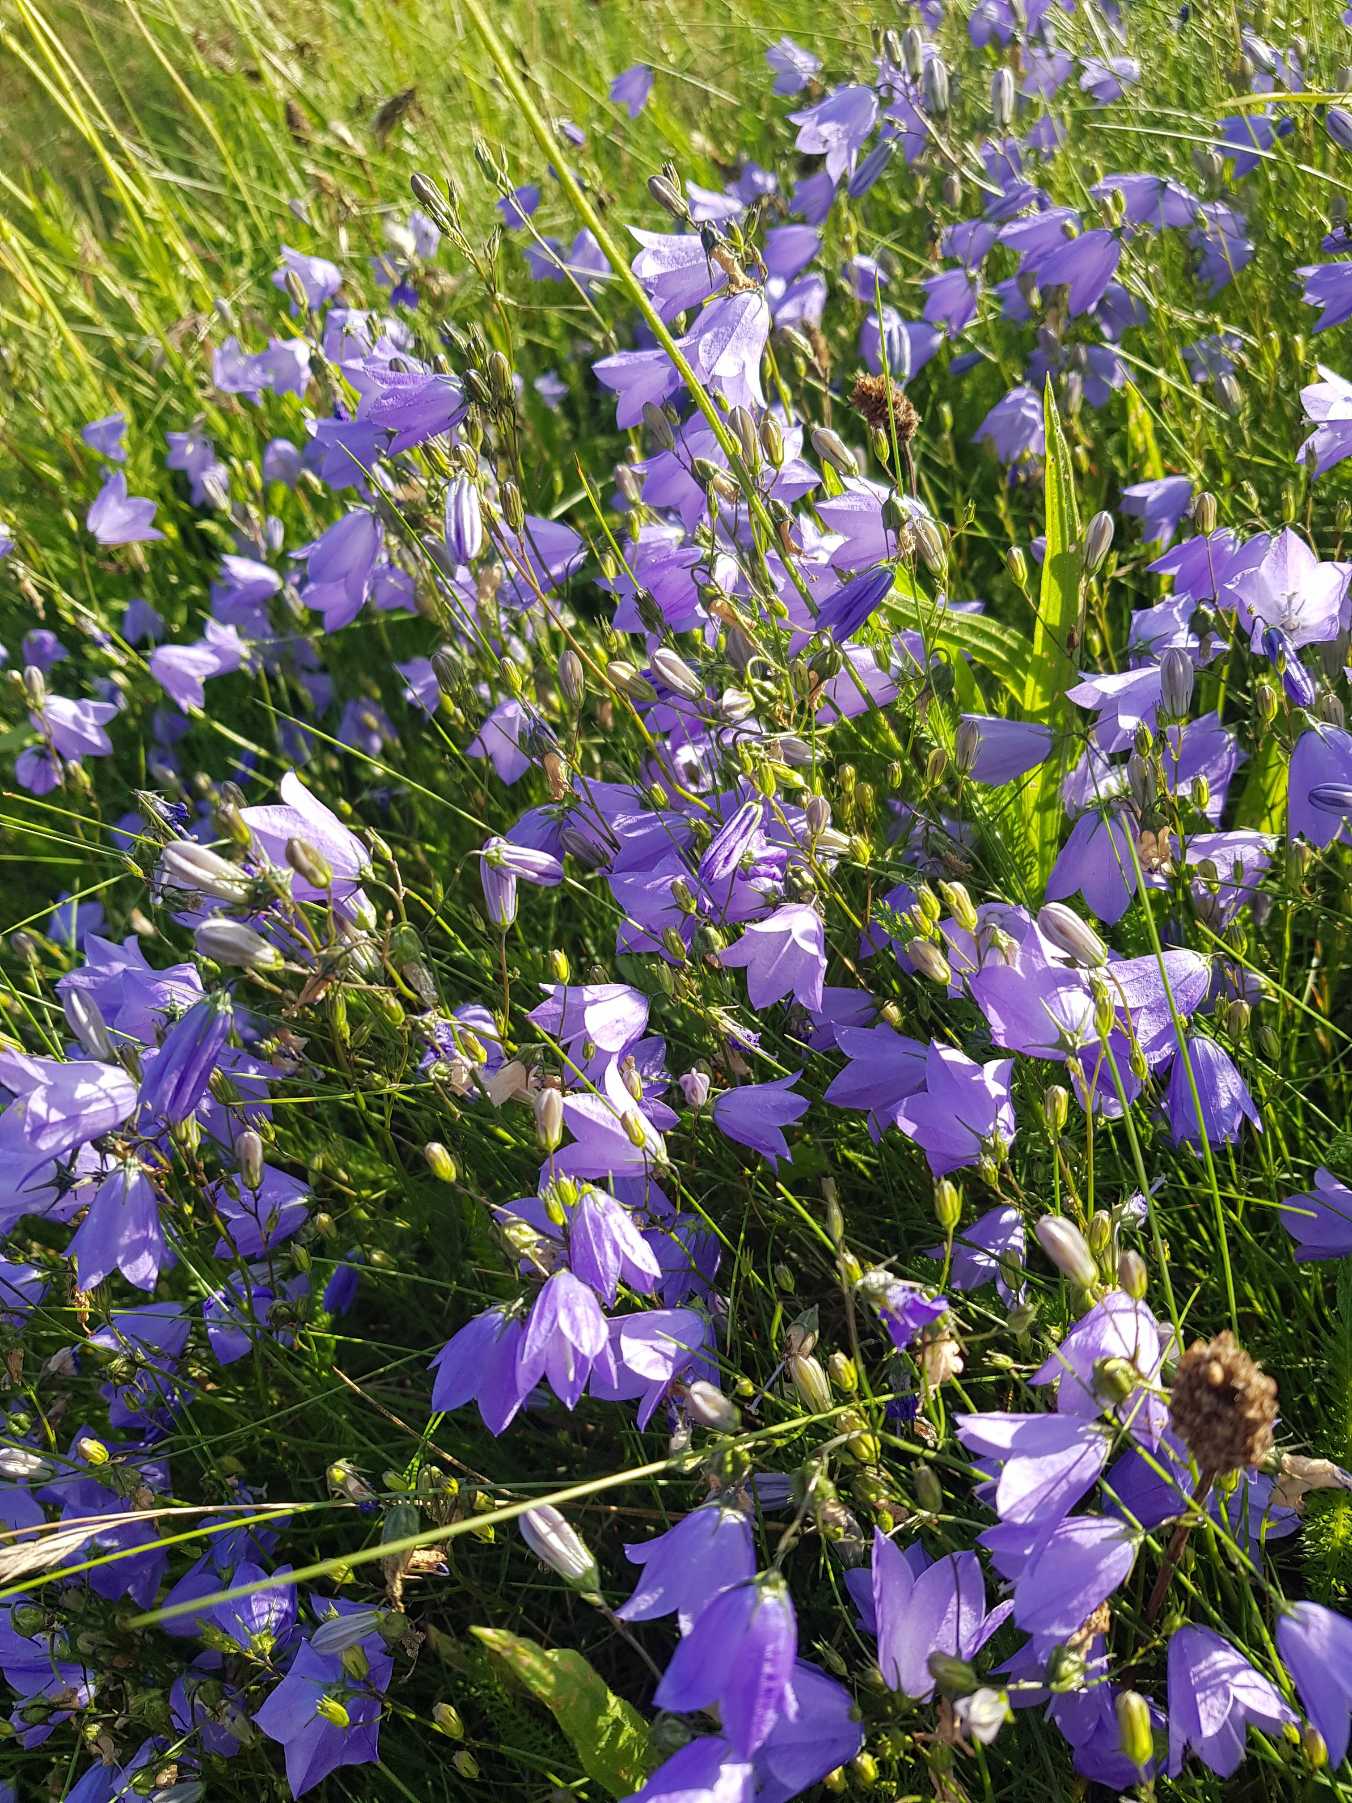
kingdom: Plantae
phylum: Tracheophyta
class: Magnoliopsida
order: Asterales
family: Campanulaceae
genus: Campanula
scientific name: Campanula rotundifolia
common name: Liden klokke
